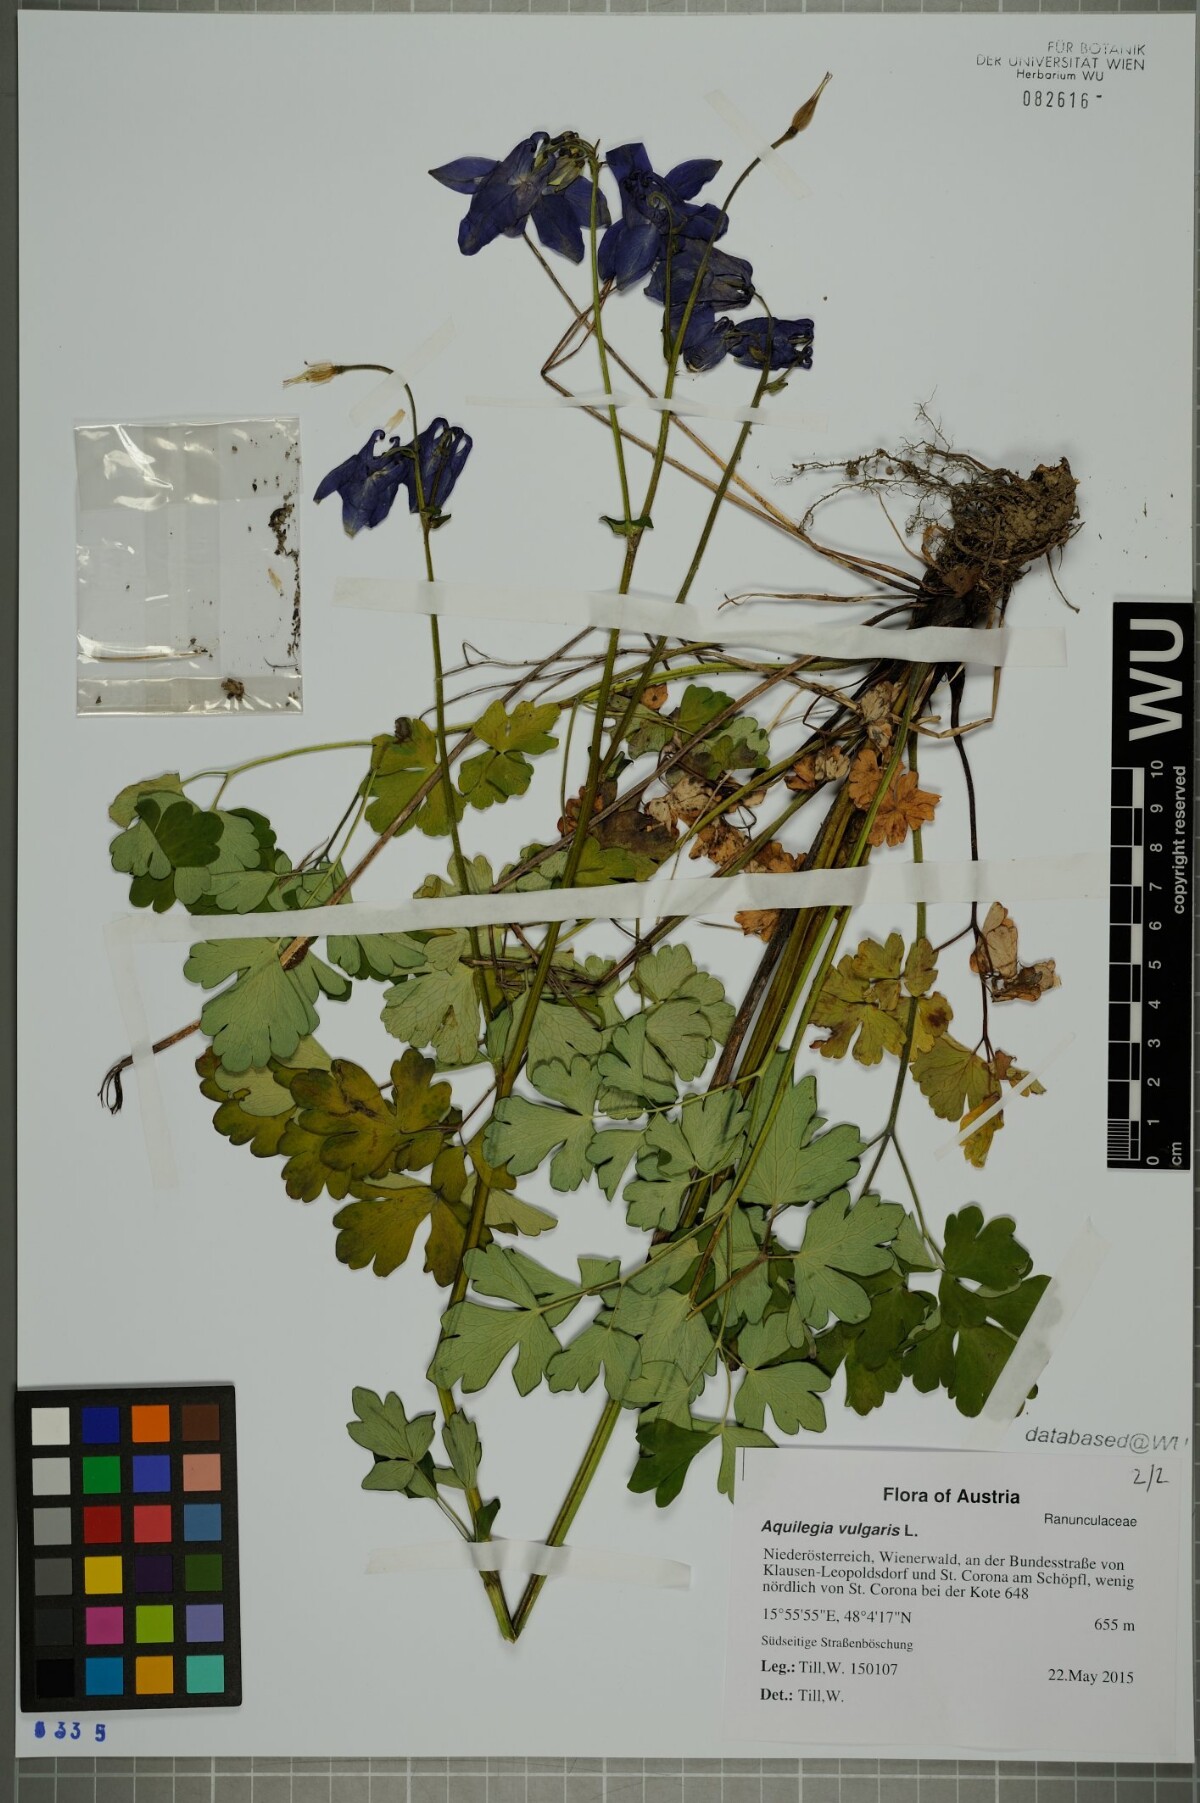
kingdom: Plantae
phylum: Tracheophyta
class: Magnoliopsida
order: Ranunculales
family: Ranunculaceae
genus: Aquilegia
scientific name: Aquilegia vulgaris
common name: Columbine
